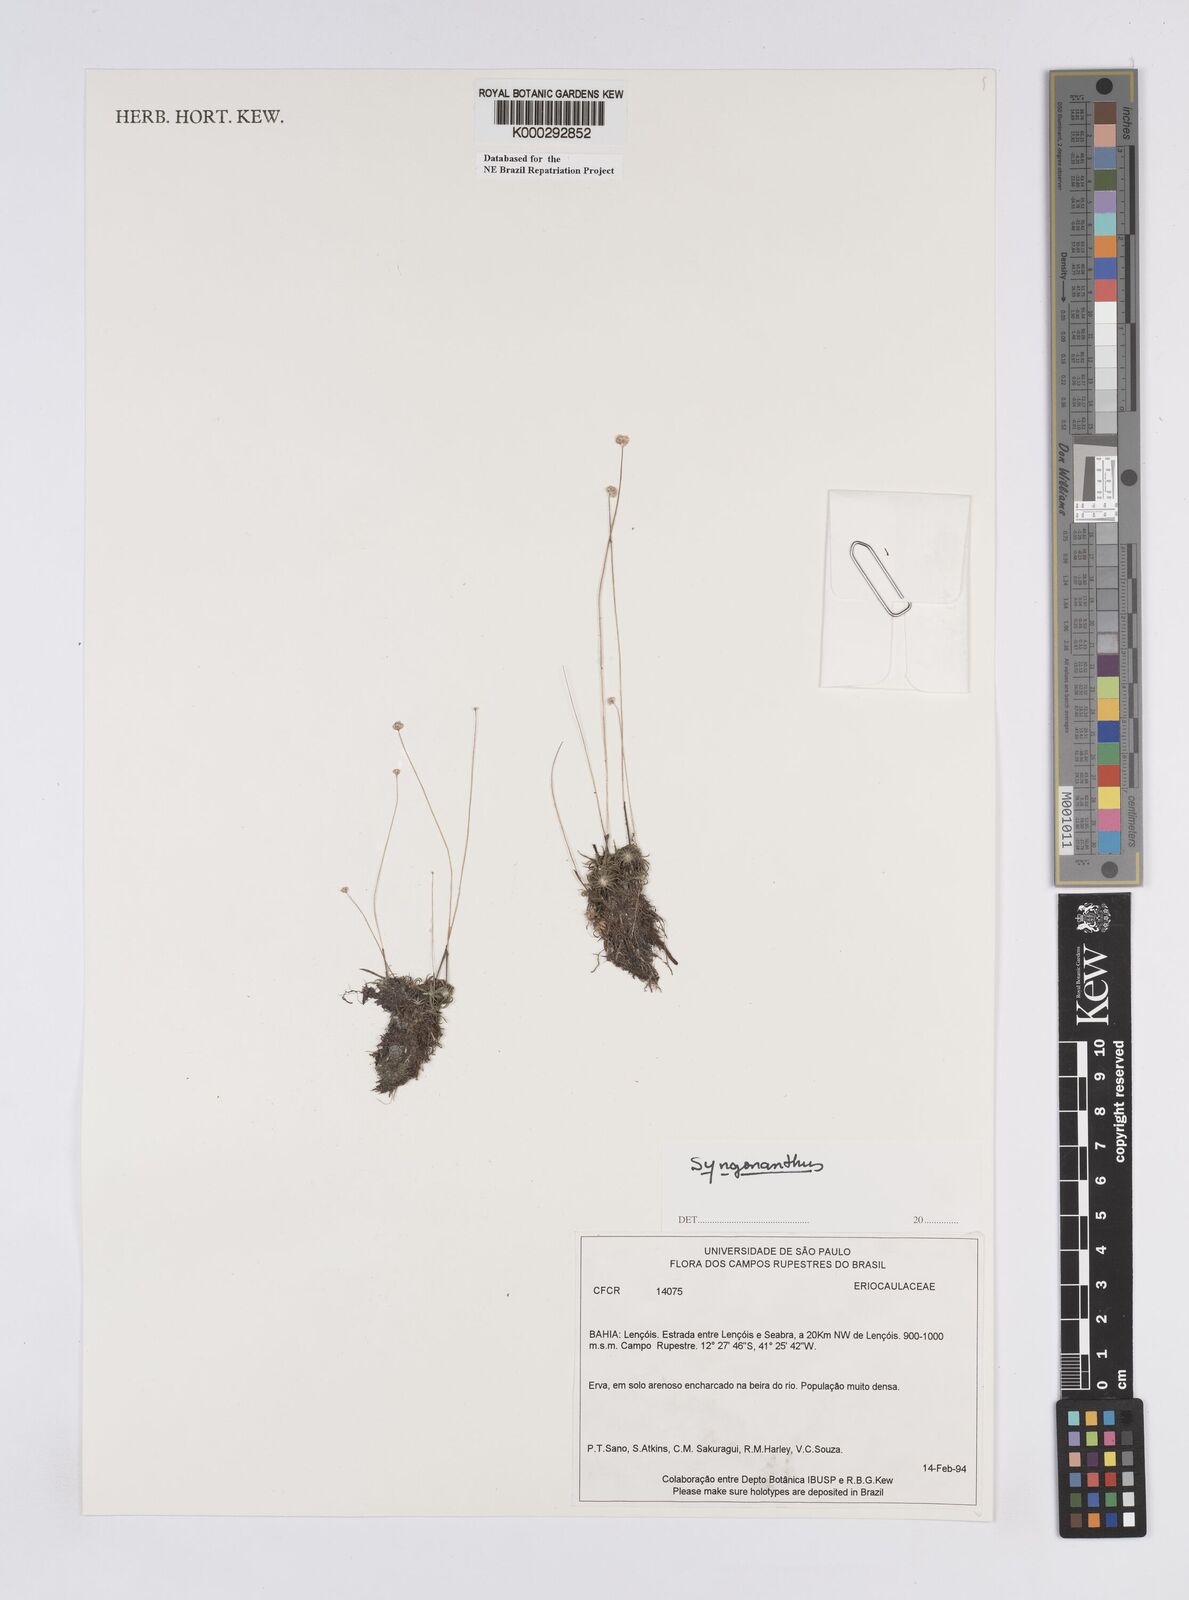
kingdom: Plantae
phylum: Tracheophyta
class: Liliopsida
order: Poales
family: Eriocaulaceae
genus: Syngonanthus
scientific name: Syngonanthus
